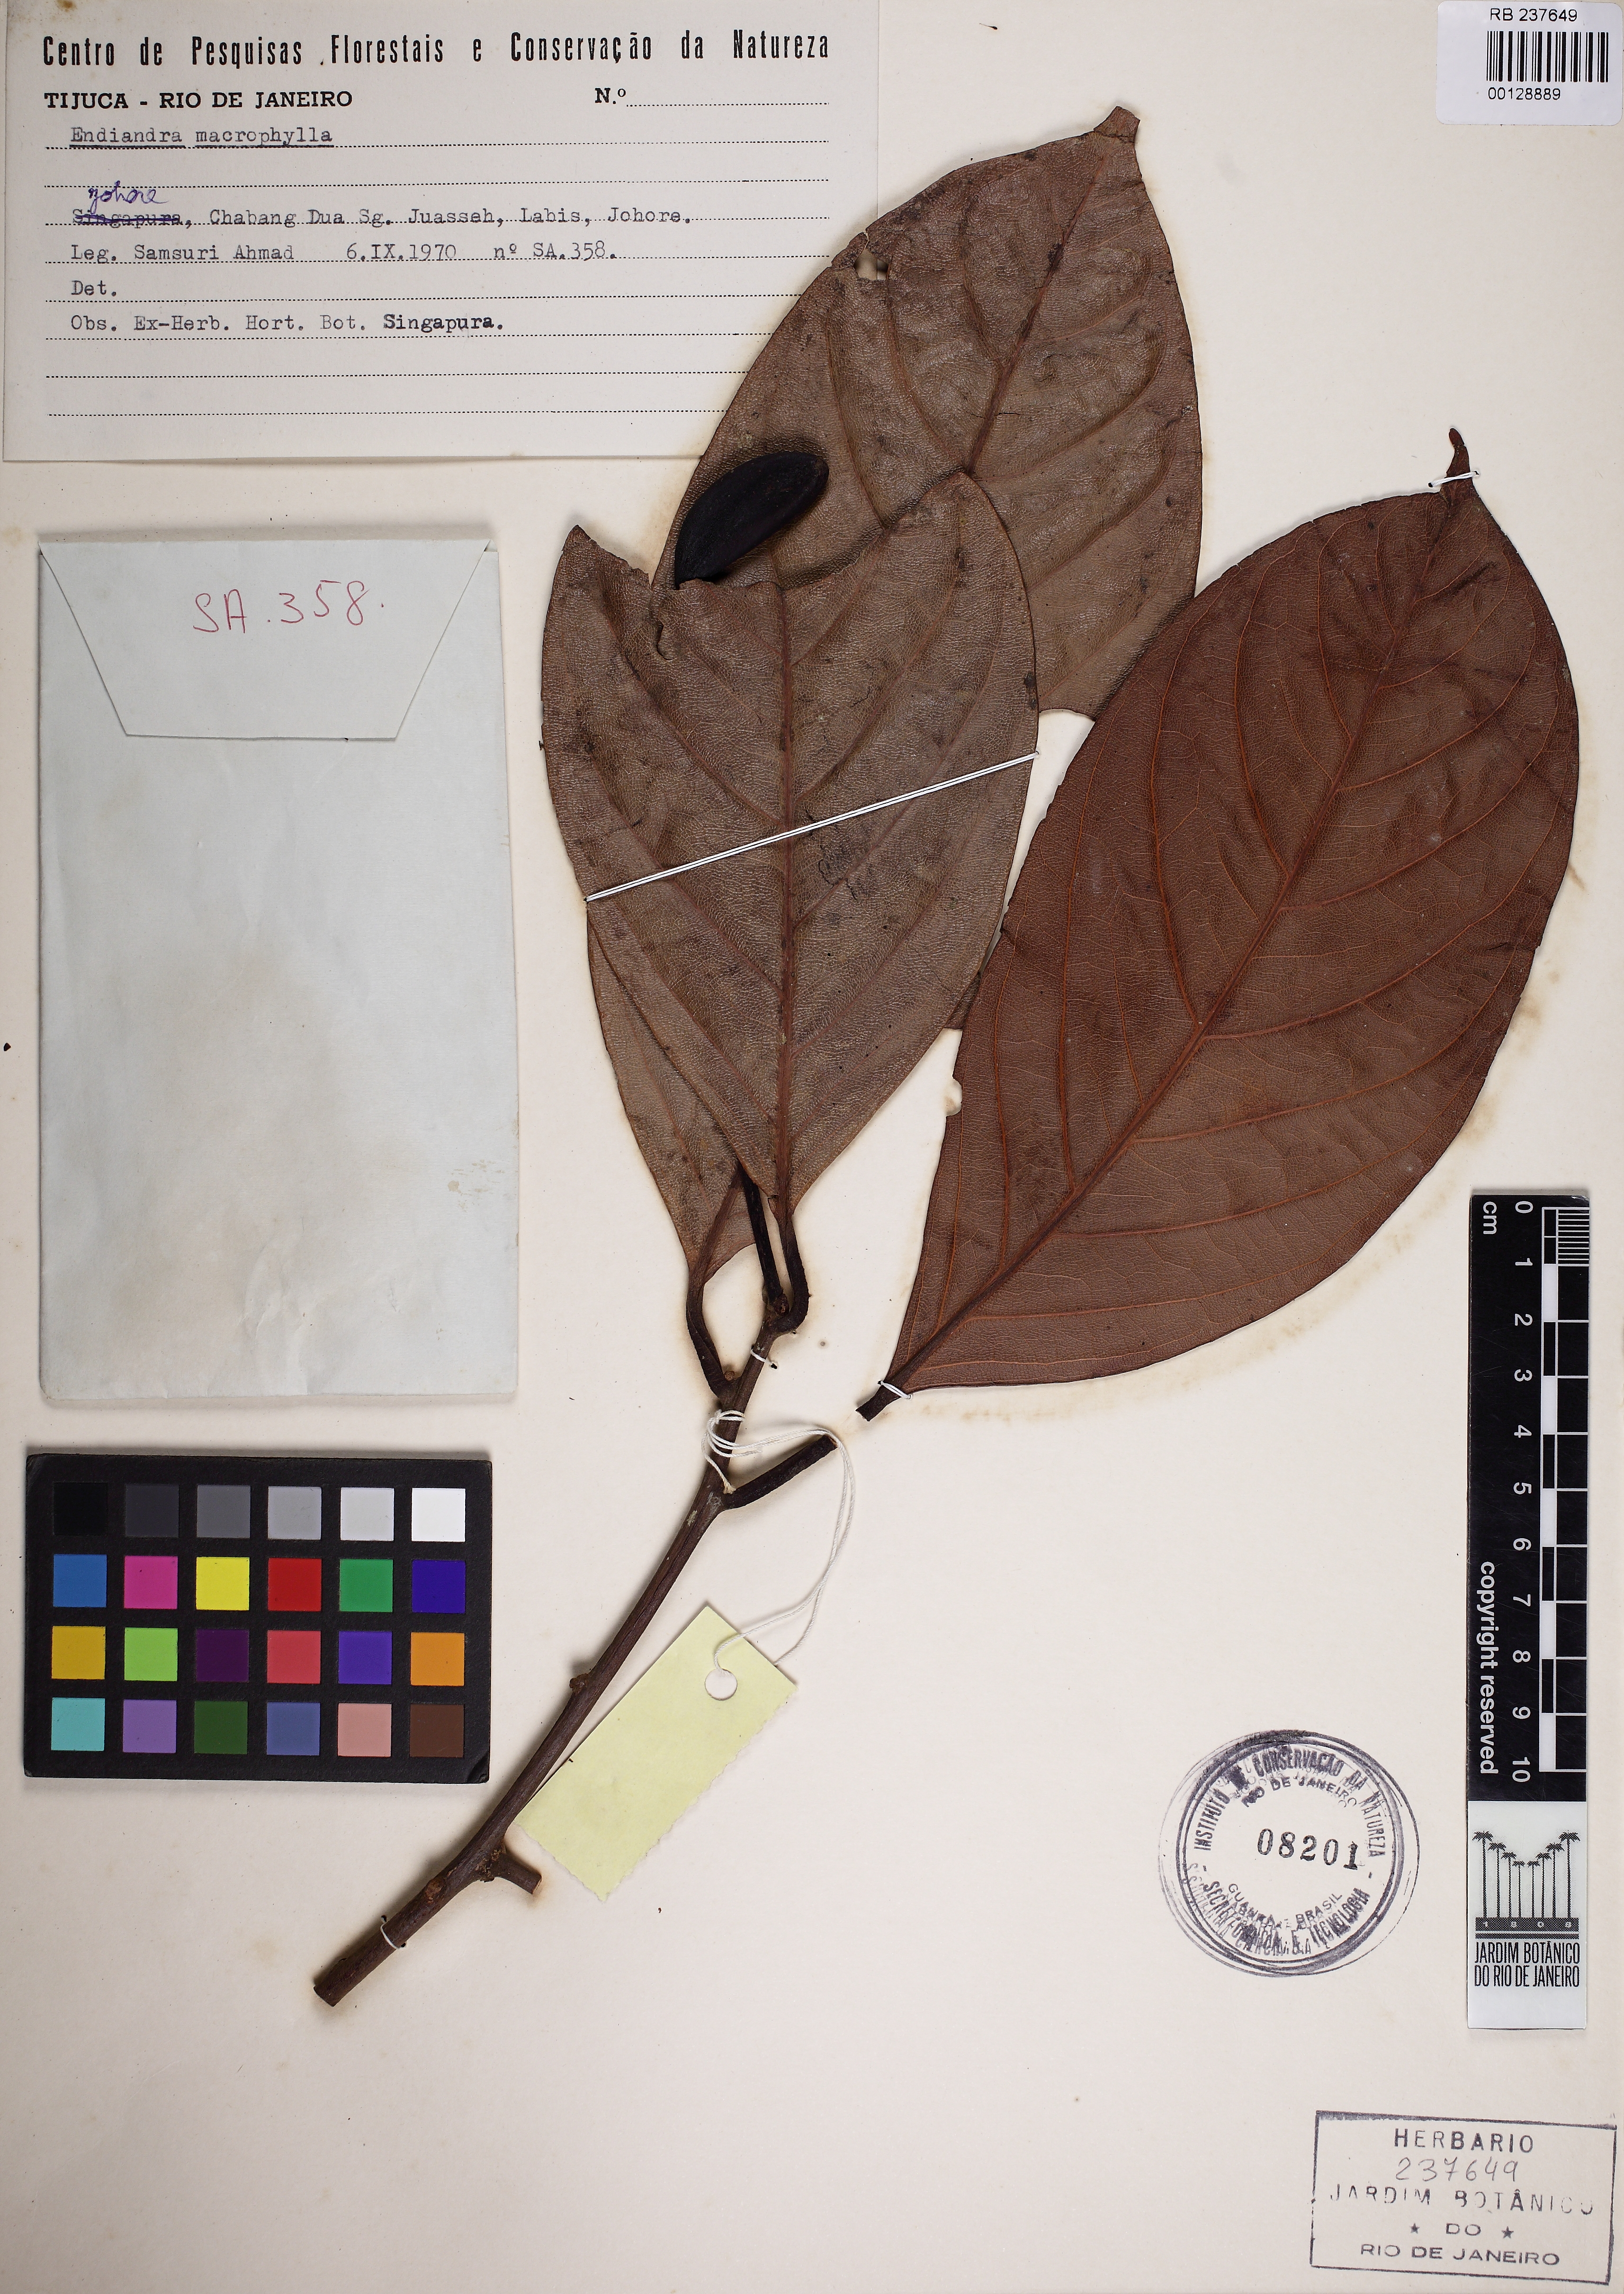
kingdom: Plantae
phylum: Tracheophyta
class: Magnoliopsida
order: Laurales
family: Lauraceae
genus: Endiandra
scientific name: Endiandra macrophylla
